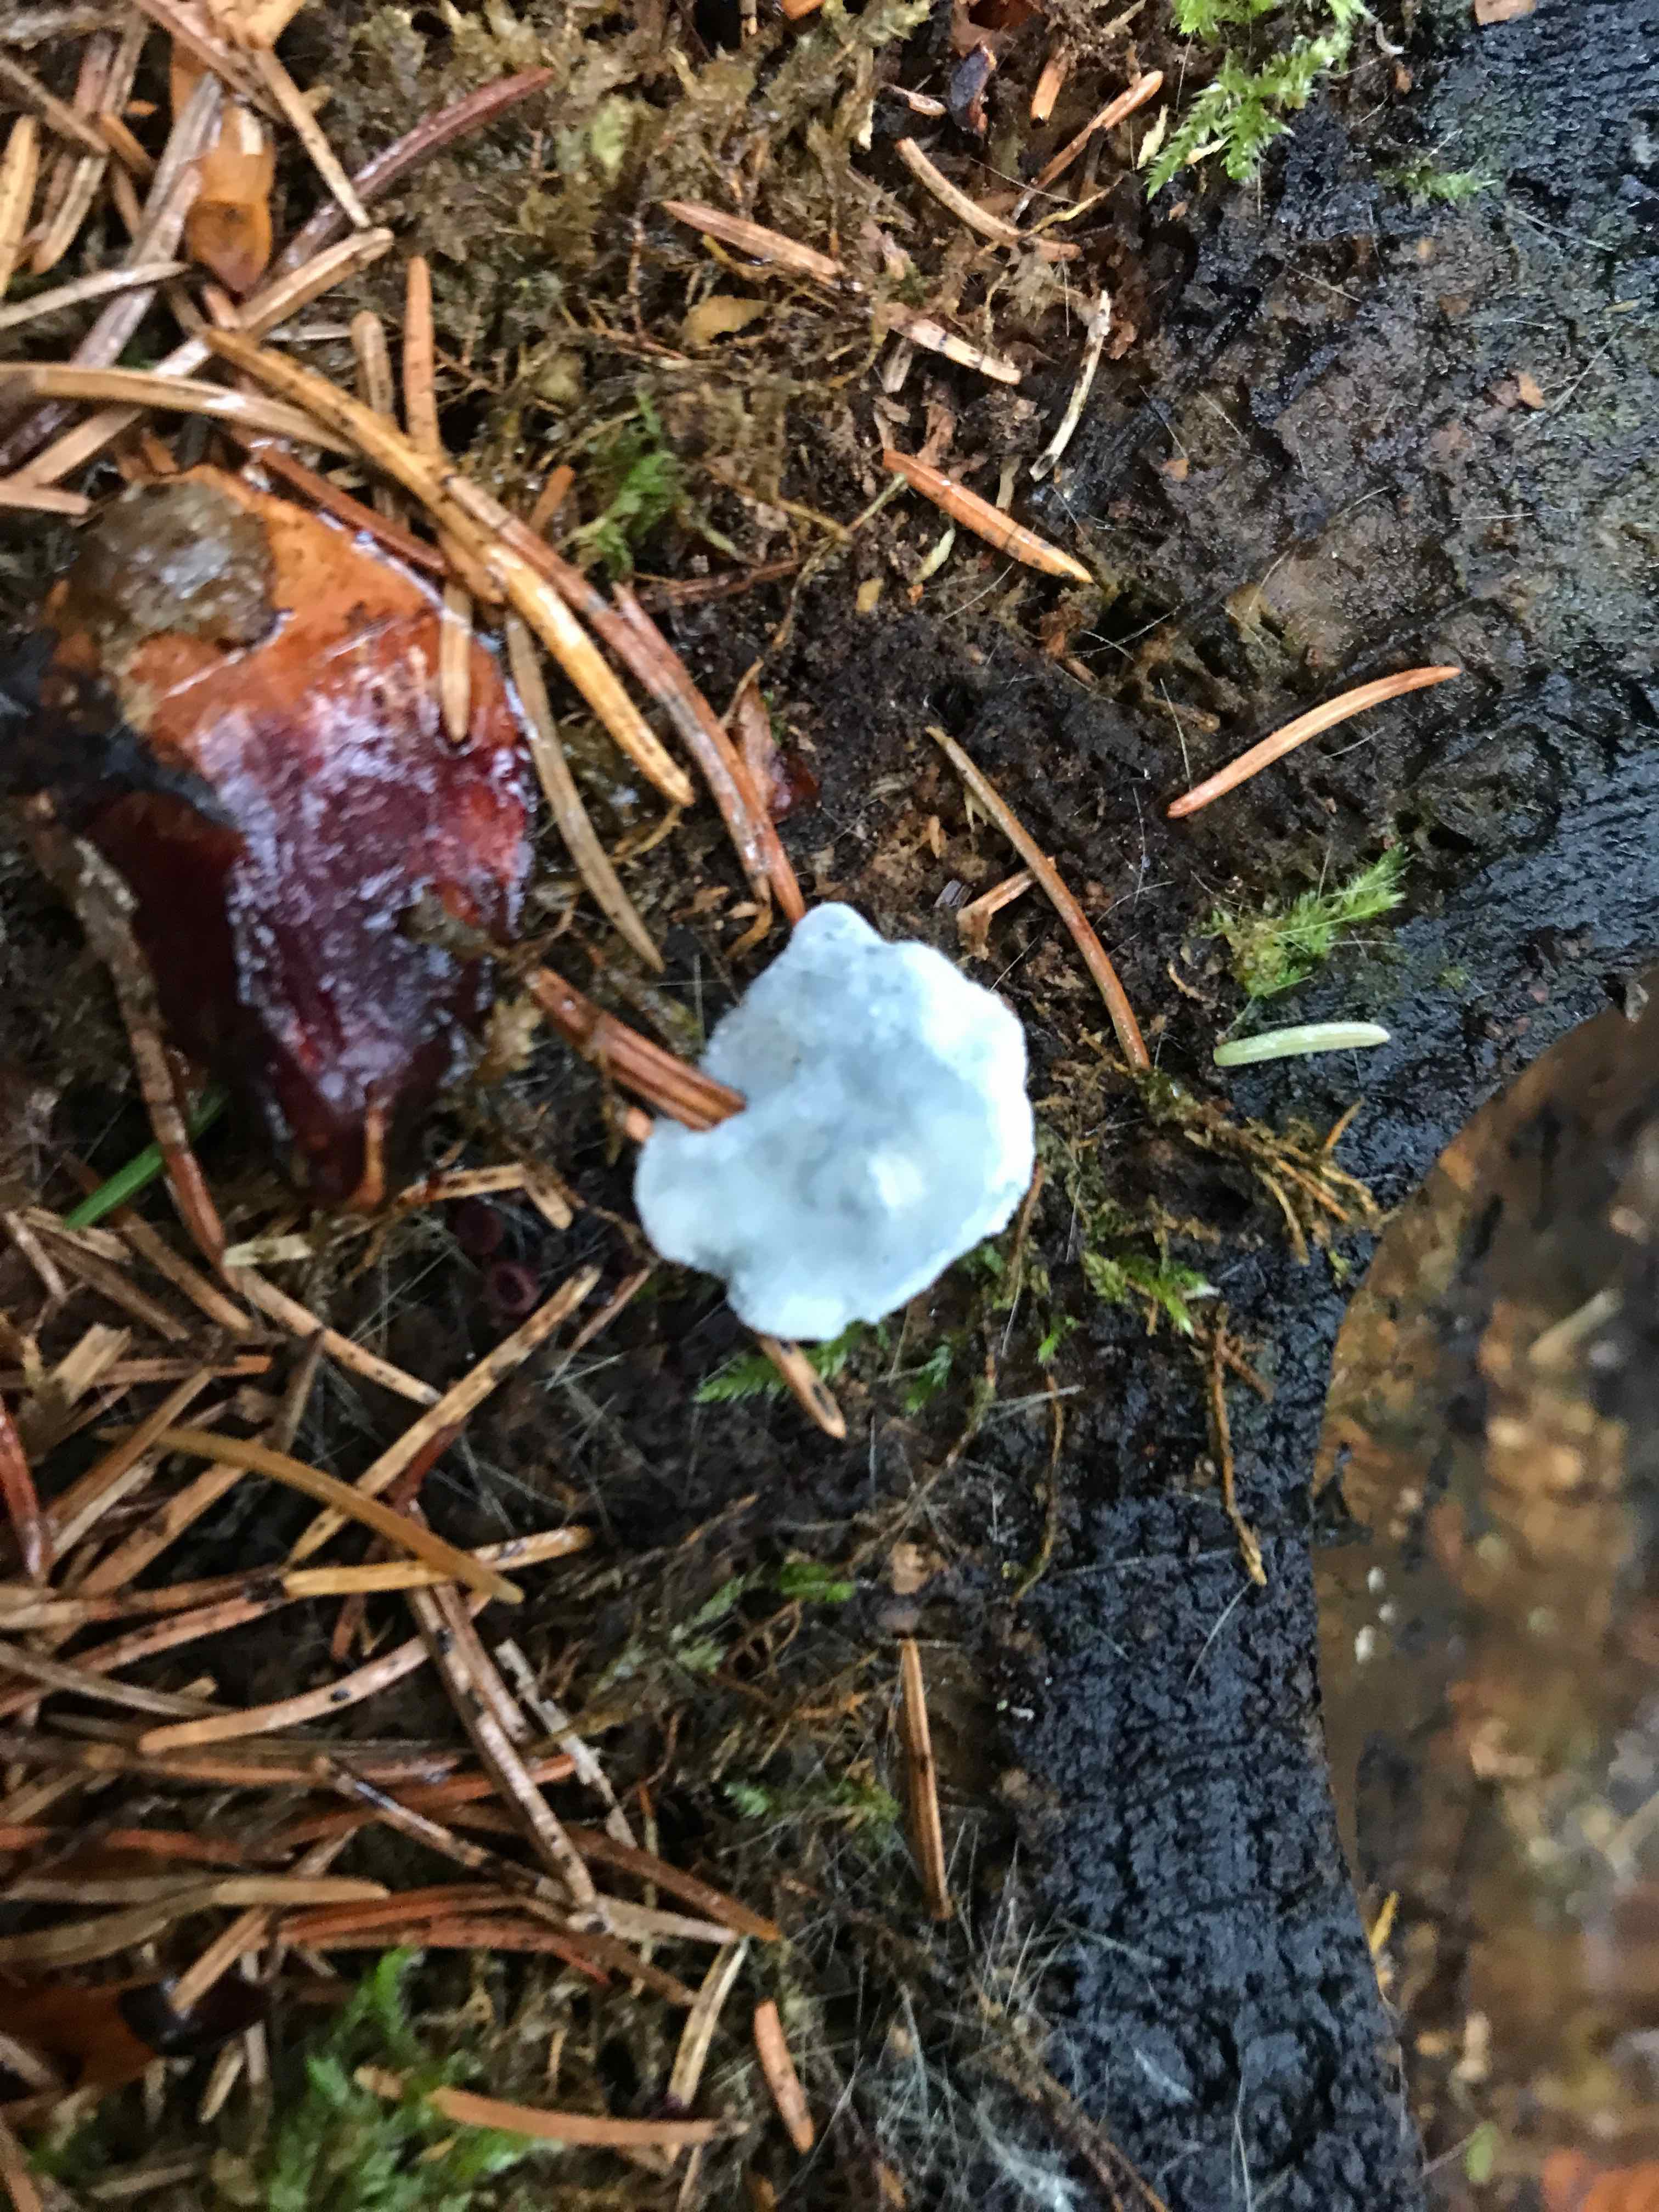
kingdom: Fungi
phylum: Basidiomycota
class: Agaricomycetes
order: Polyporales
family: Polyporaceae
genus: Cyanosporus
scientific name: Cyanosporus caesius
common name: blålig kødporesvamp
